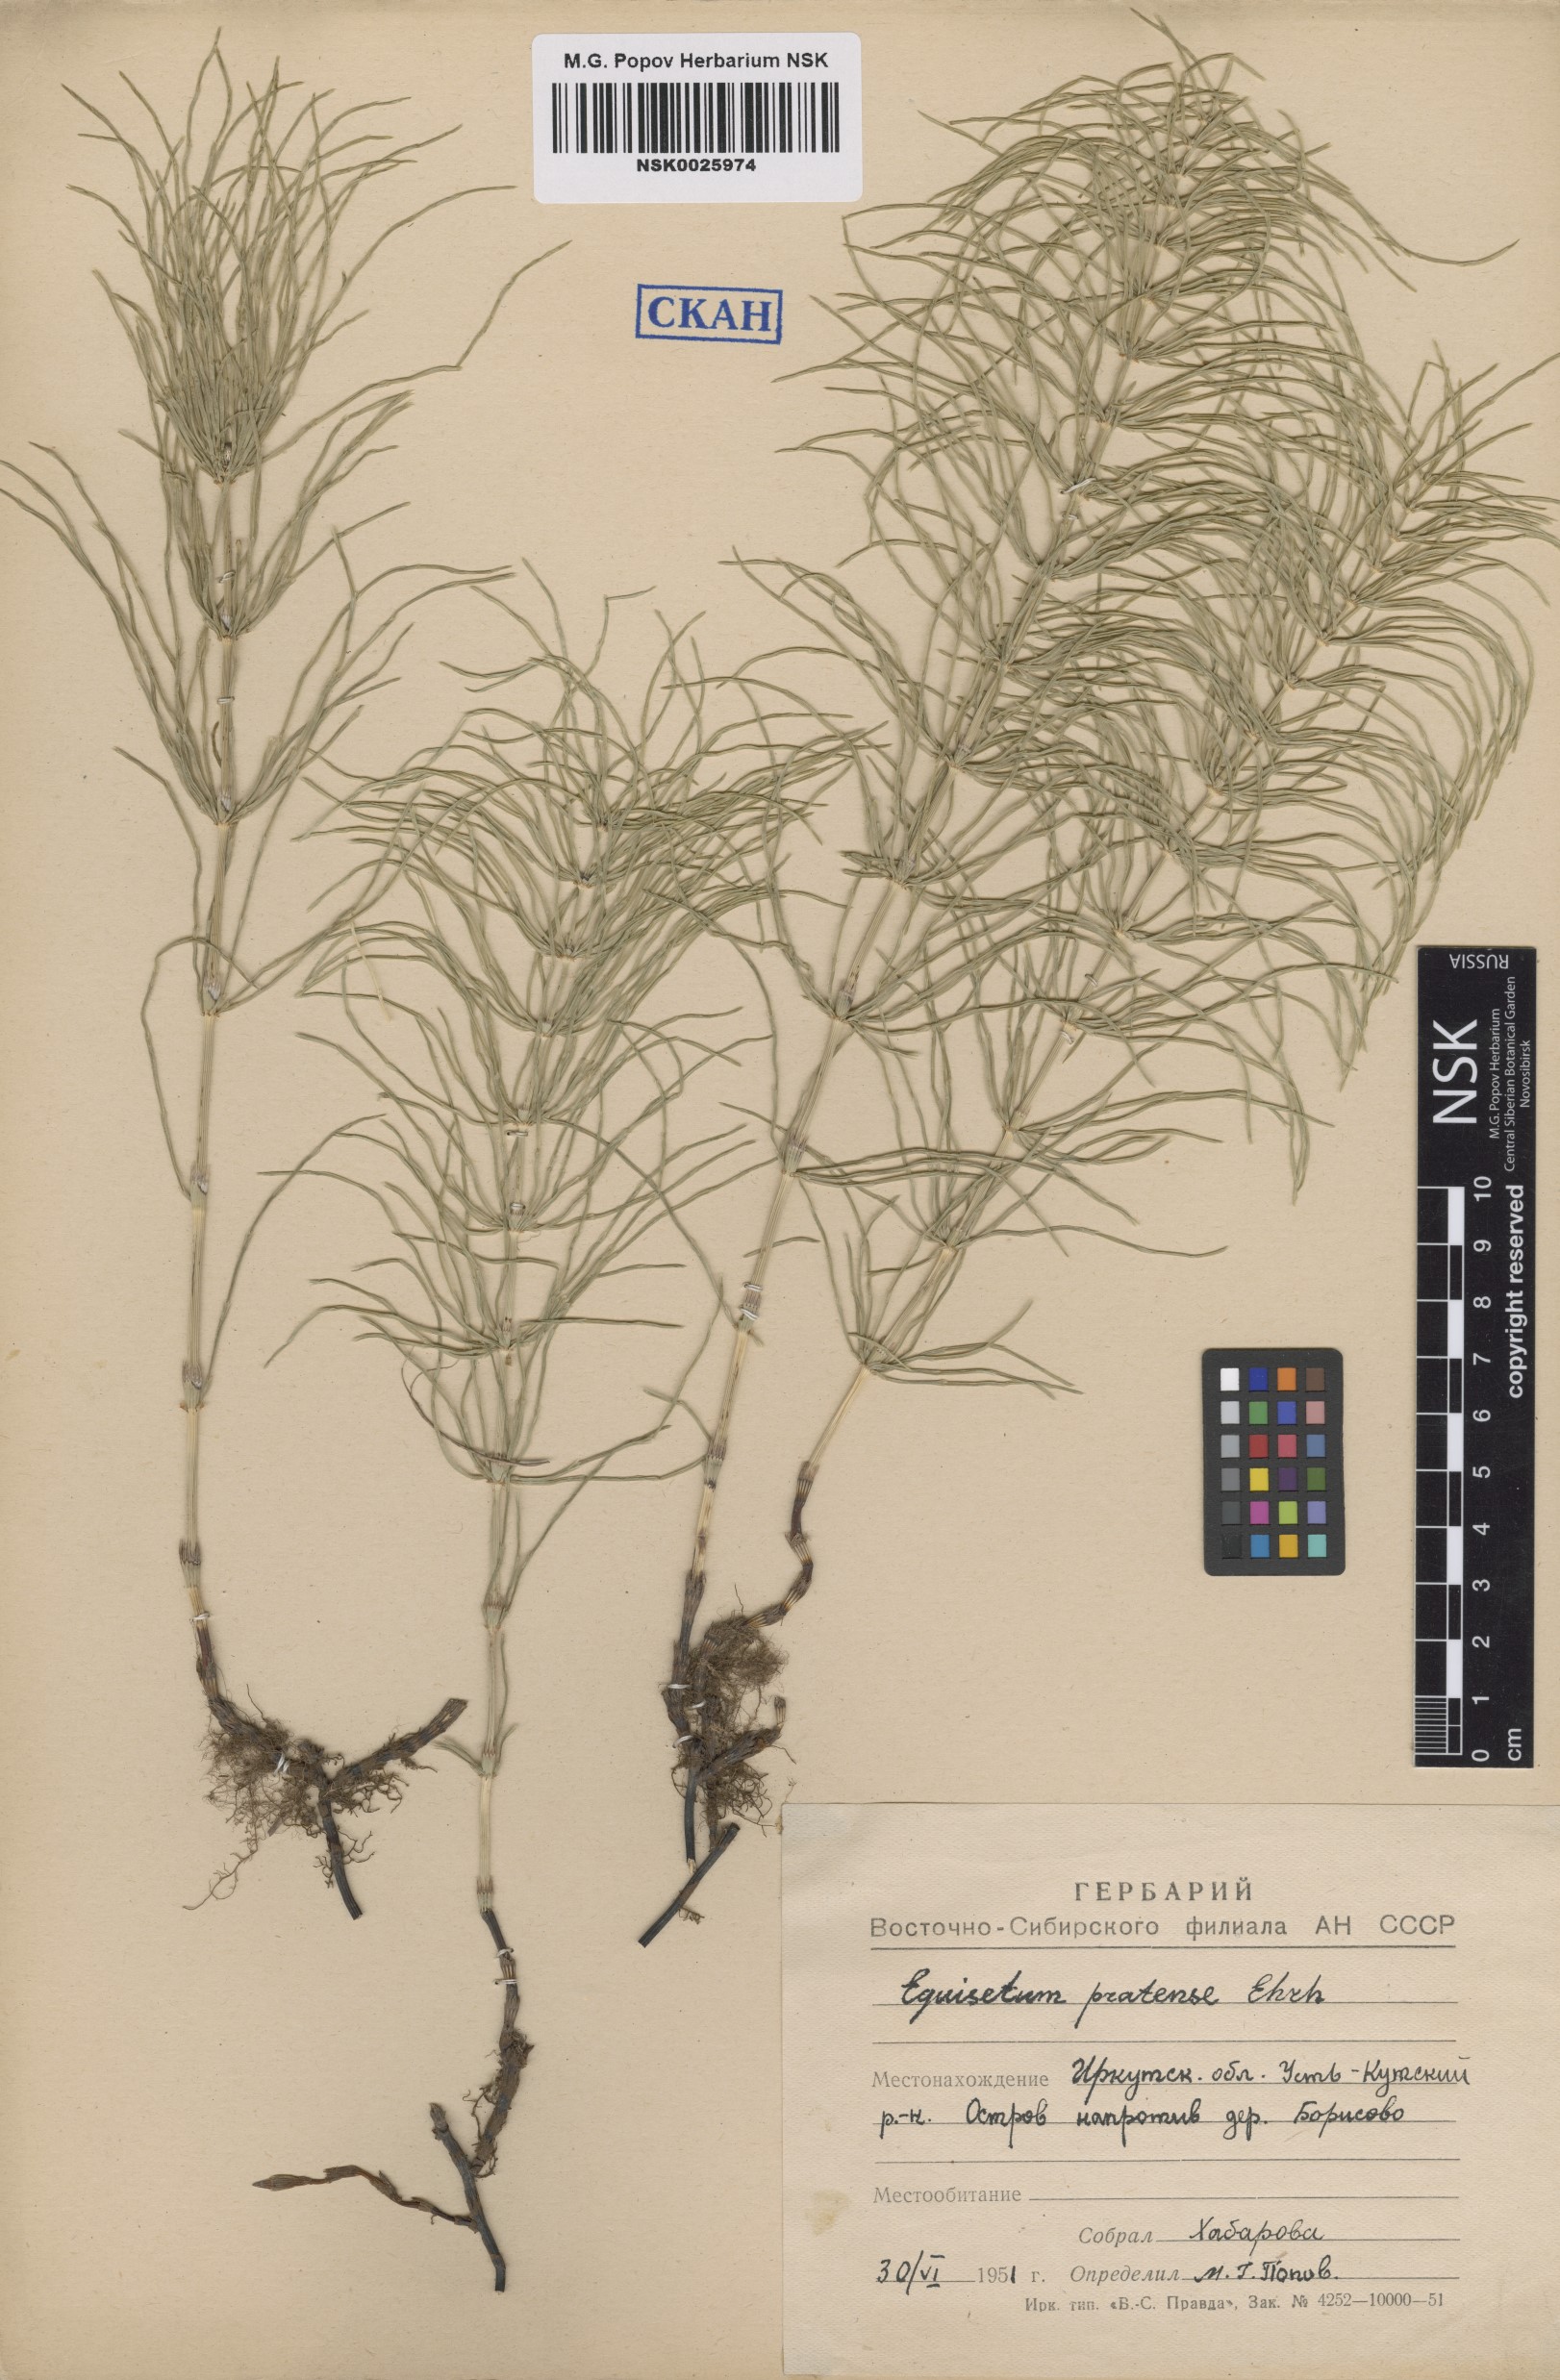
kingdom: Plantae
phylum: Tracheophyta
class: Polypodiopsida
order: Equisetales
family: Equisetaceae
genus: Equisetum
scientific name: Equisetum pratense
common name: Meadow horsetail
